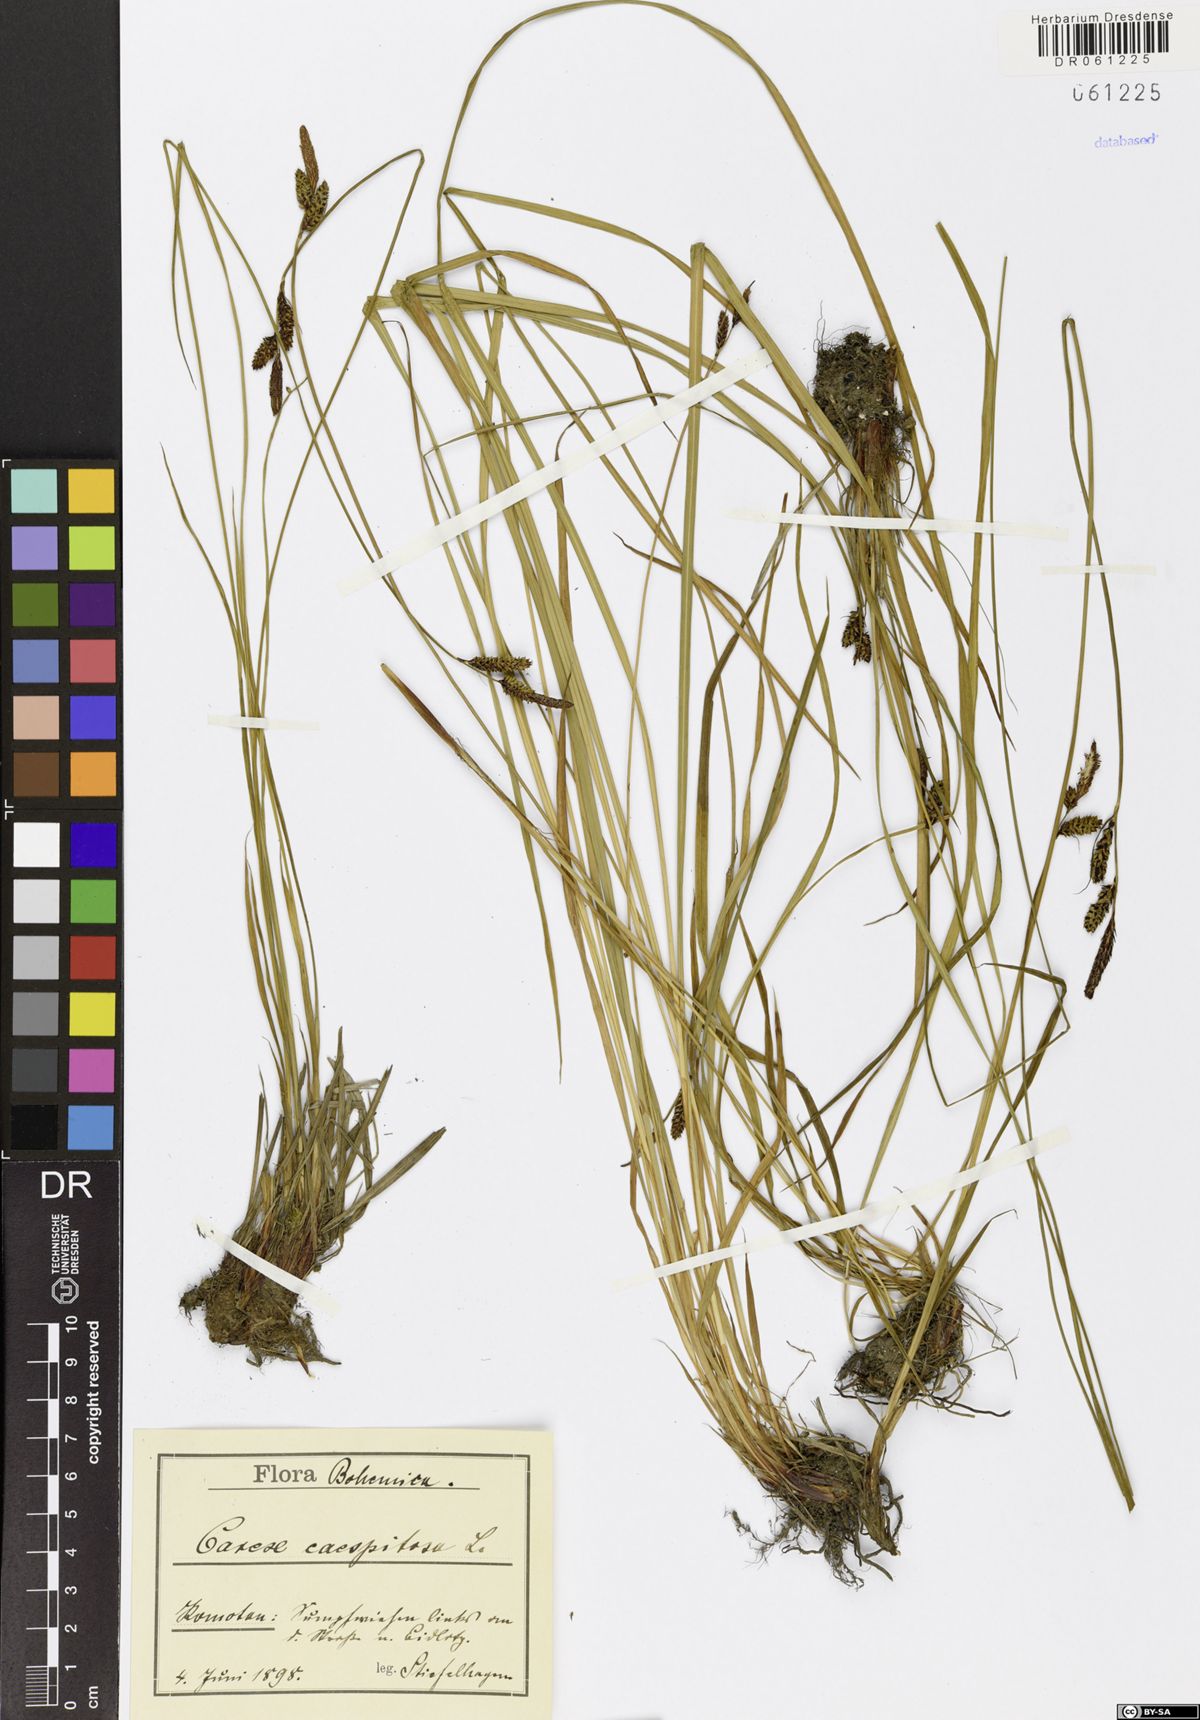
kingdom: Plantae
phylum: Tracheophyta
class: Liliopsida
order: Poales
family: Cyperaceae
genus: Carex
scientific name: Carex cespitosa
